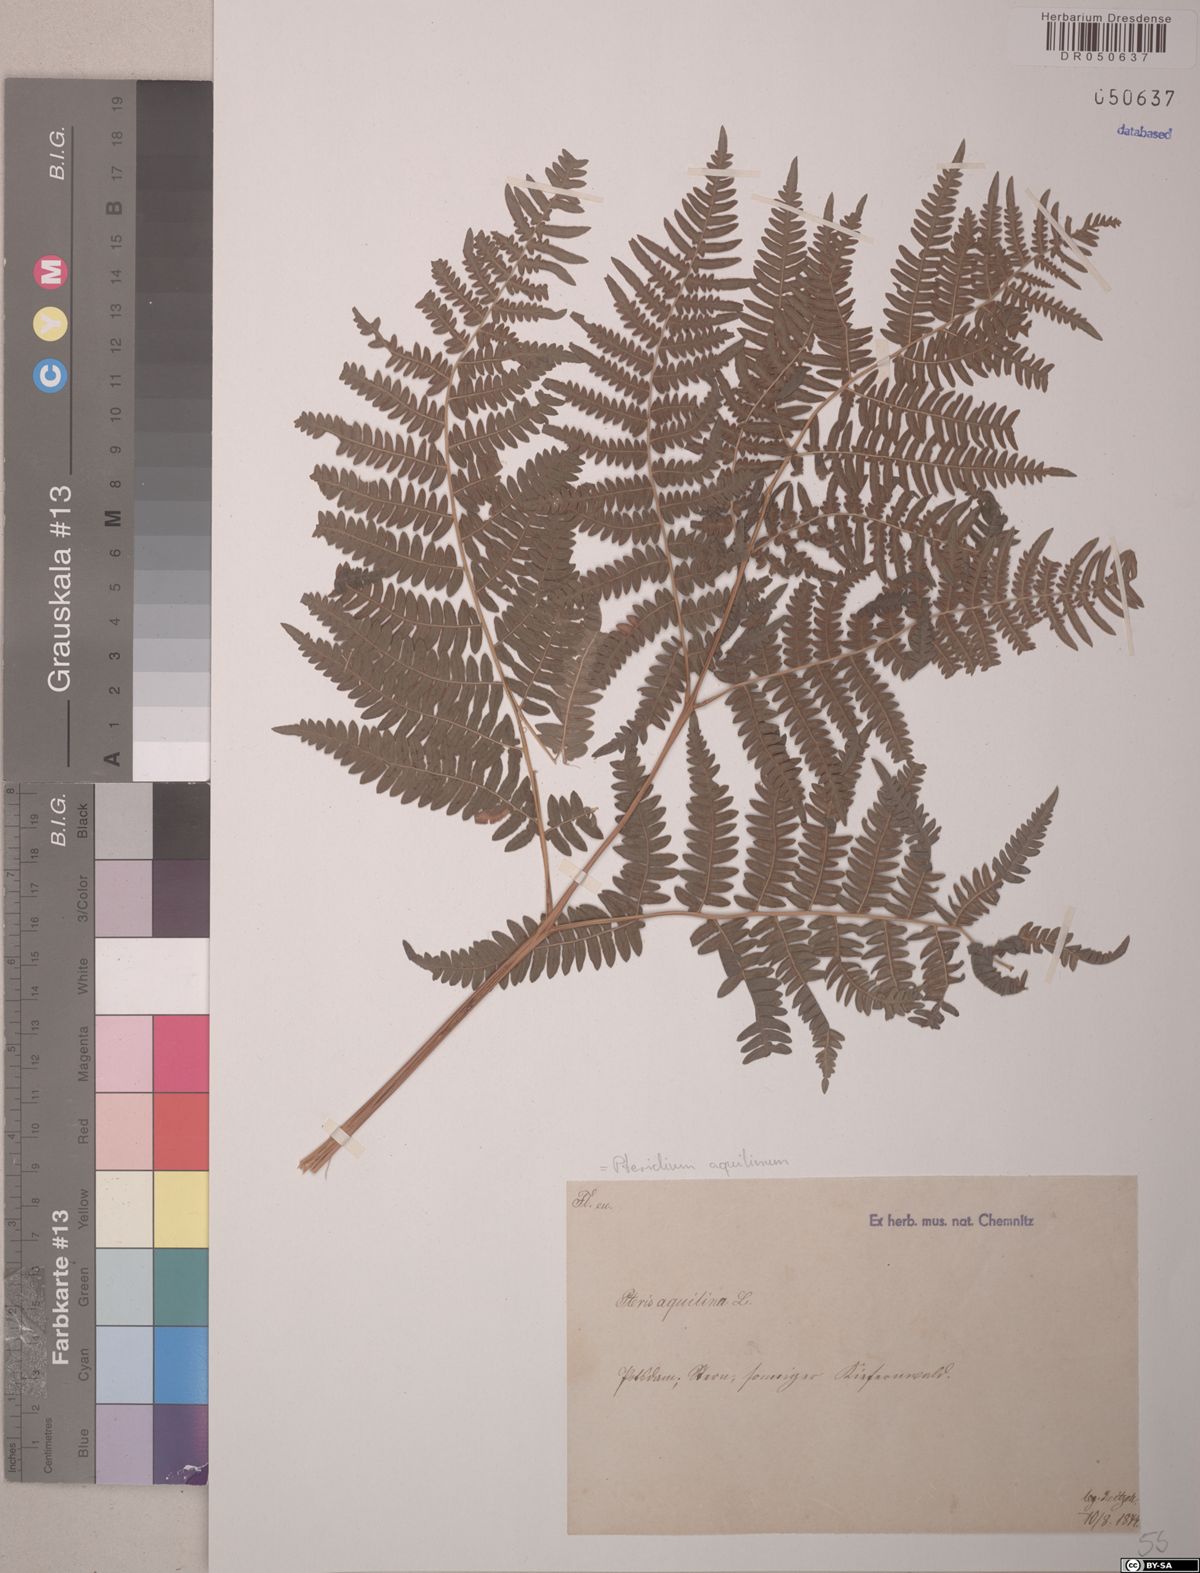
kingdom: Plantae
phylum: Tracheophyta
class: Polypodiopsida
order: Polypodiales
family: Dennstaedtiaceae
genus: Pteridium
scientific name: Pteridium aquilinum
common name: Bracken
